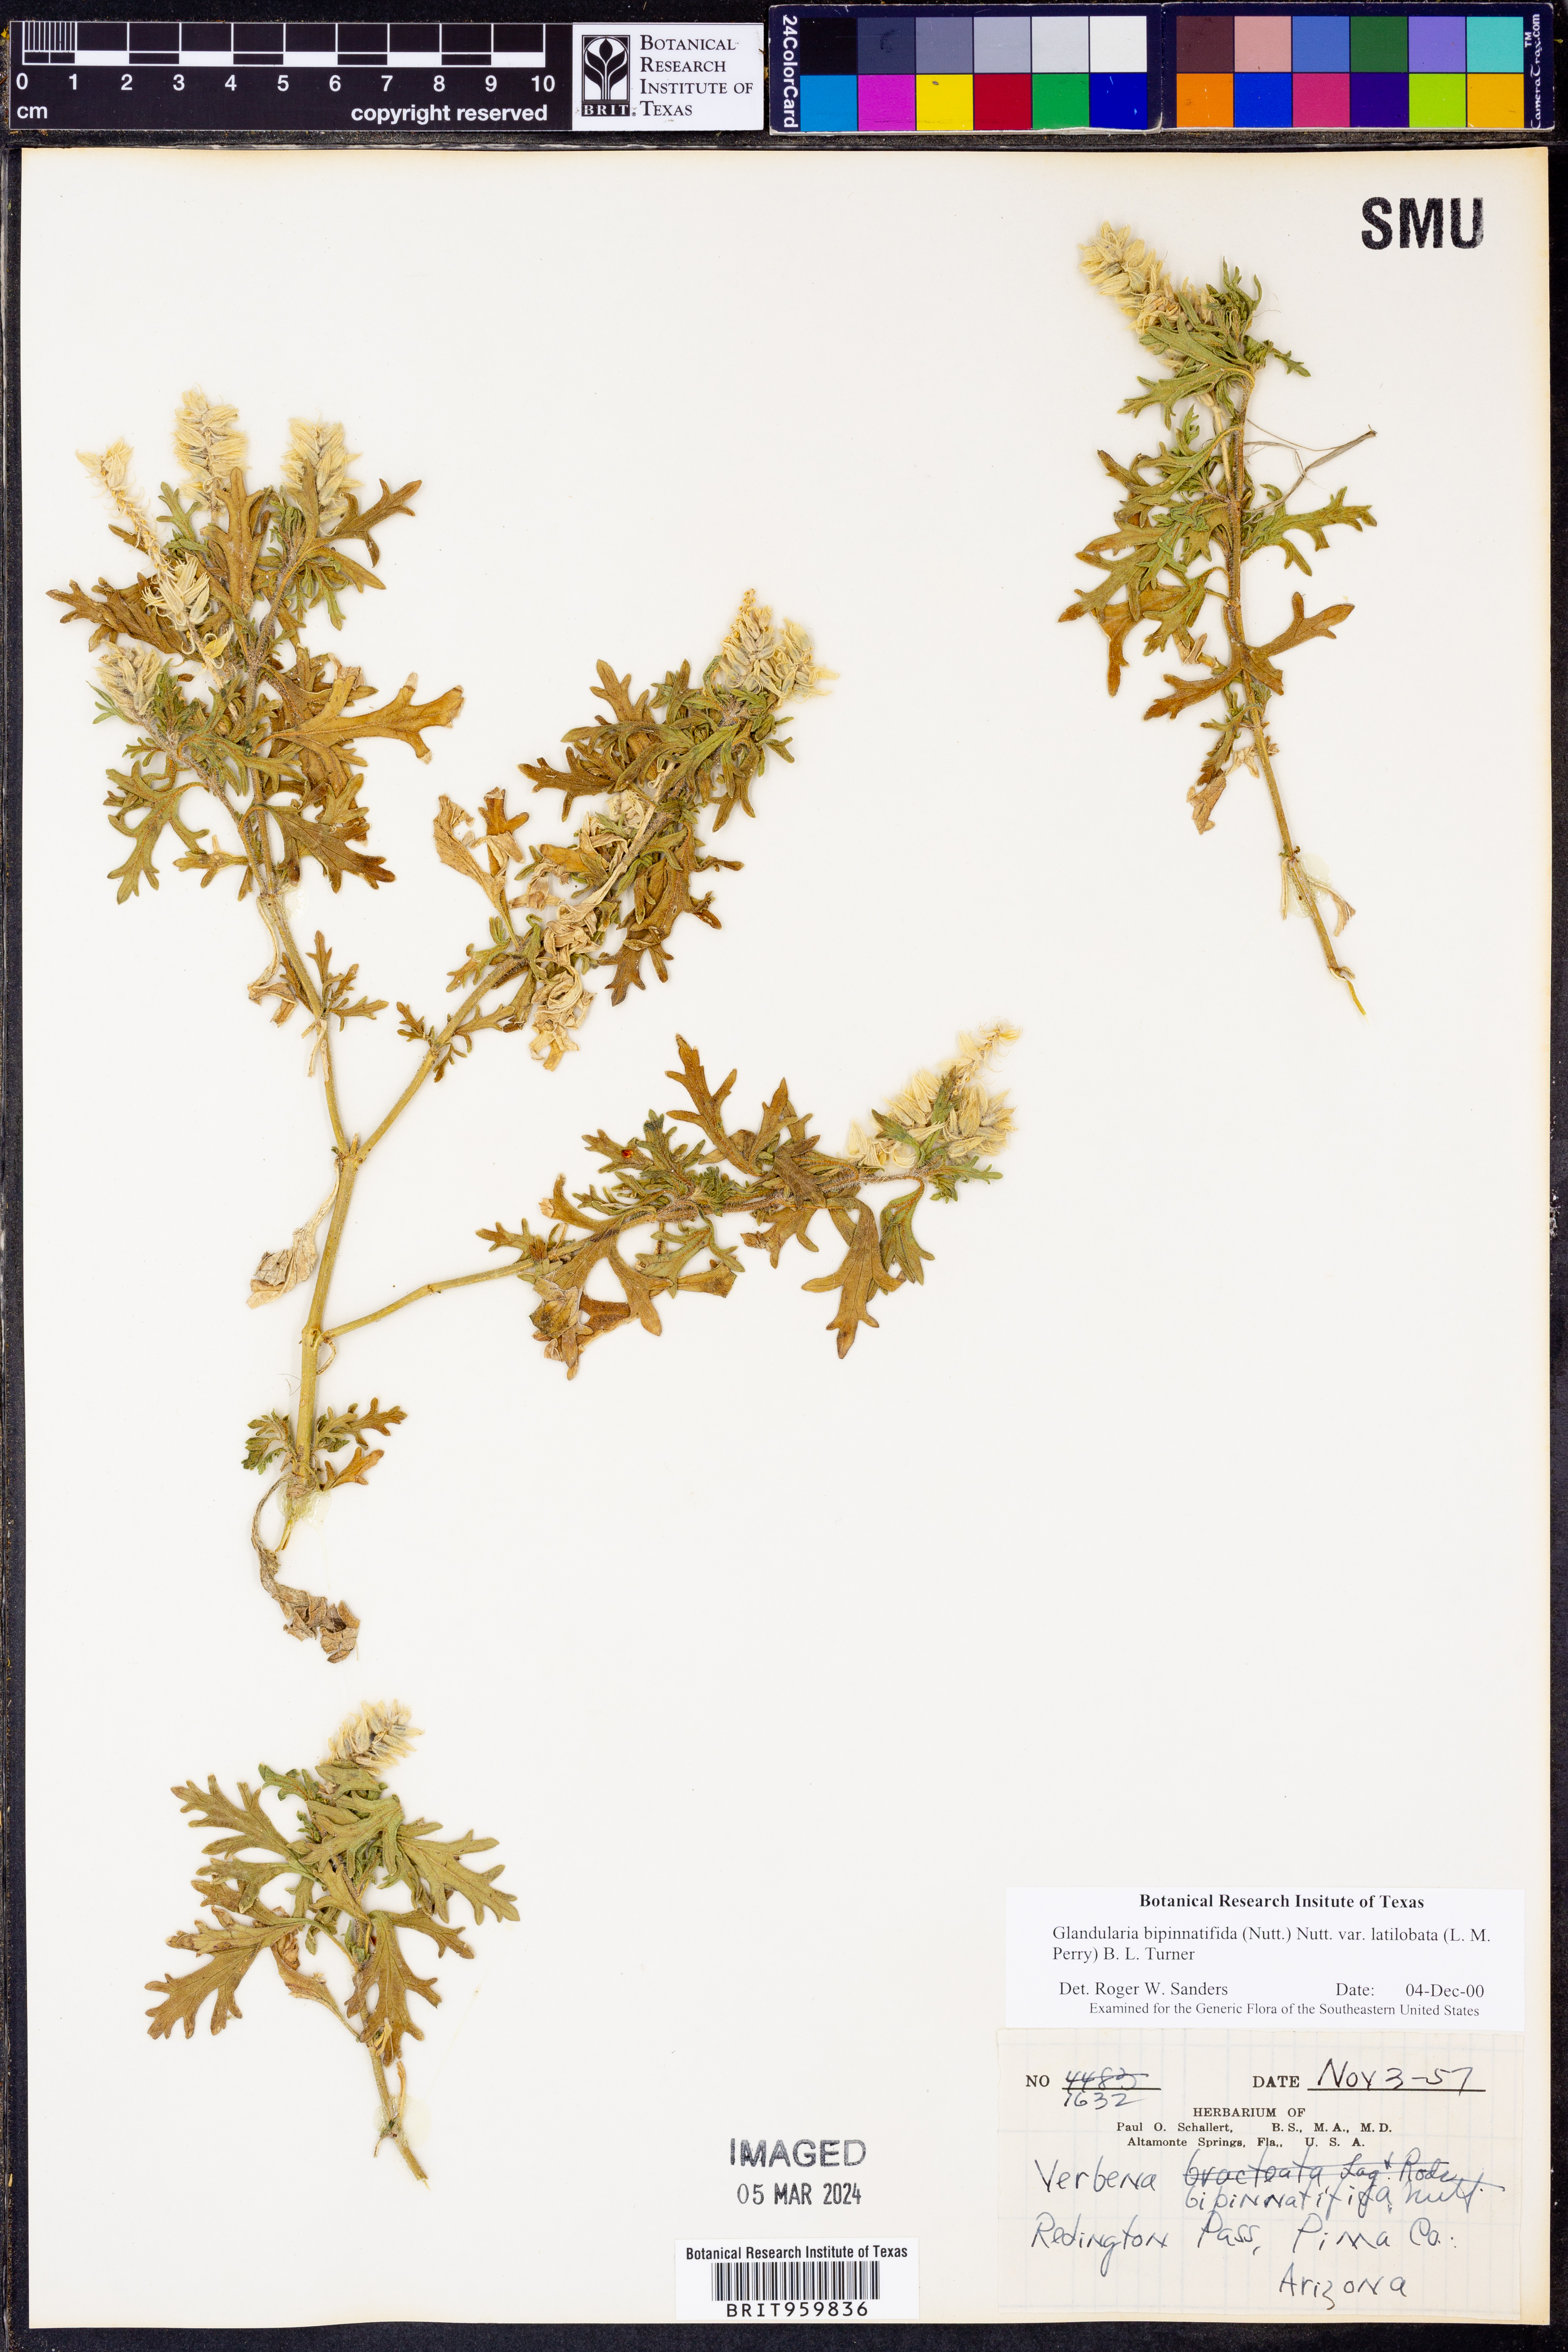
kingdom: Plantae
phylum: Tracheophyta
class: Magnoliopsida
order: Lamiales
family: Verbenaceae
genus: Verbena
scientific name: Verbena bipinnatifida
